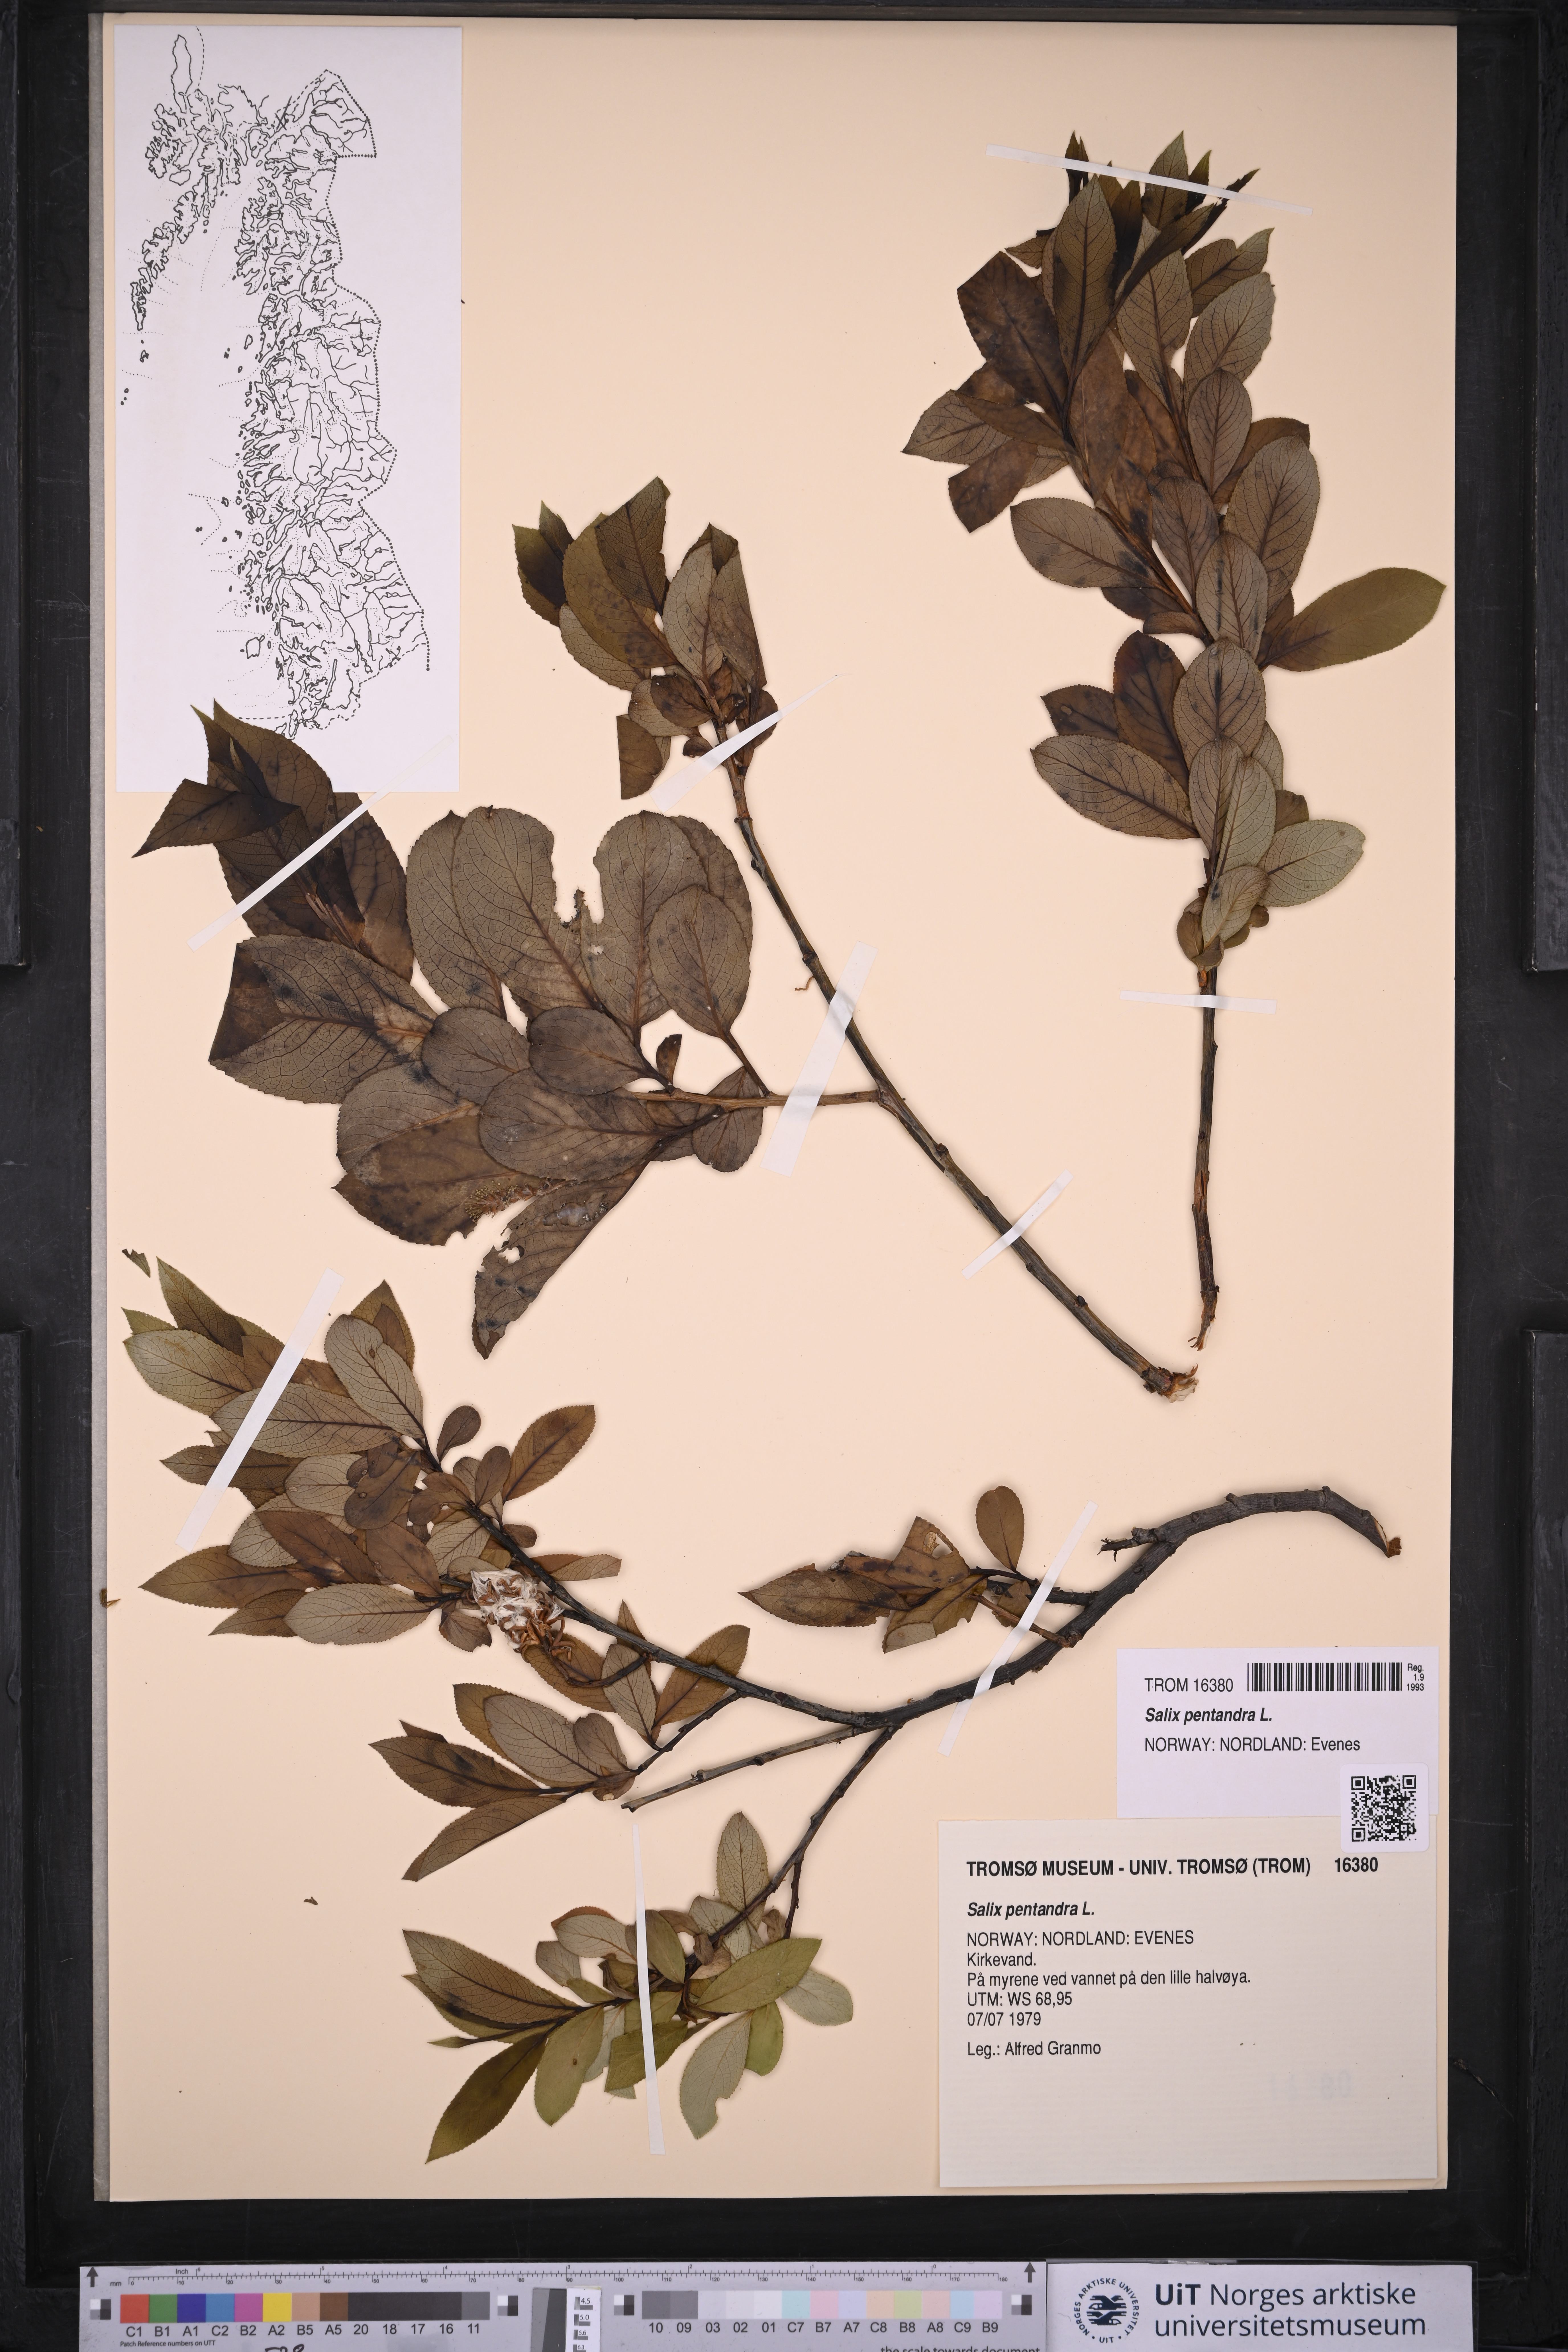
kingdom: Plantae
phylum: Tracheophyta
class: Magnoliopsida
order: Malpighiales
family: Salicaceae
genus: Salix
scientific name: Salix pentandra
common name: Bay willow
